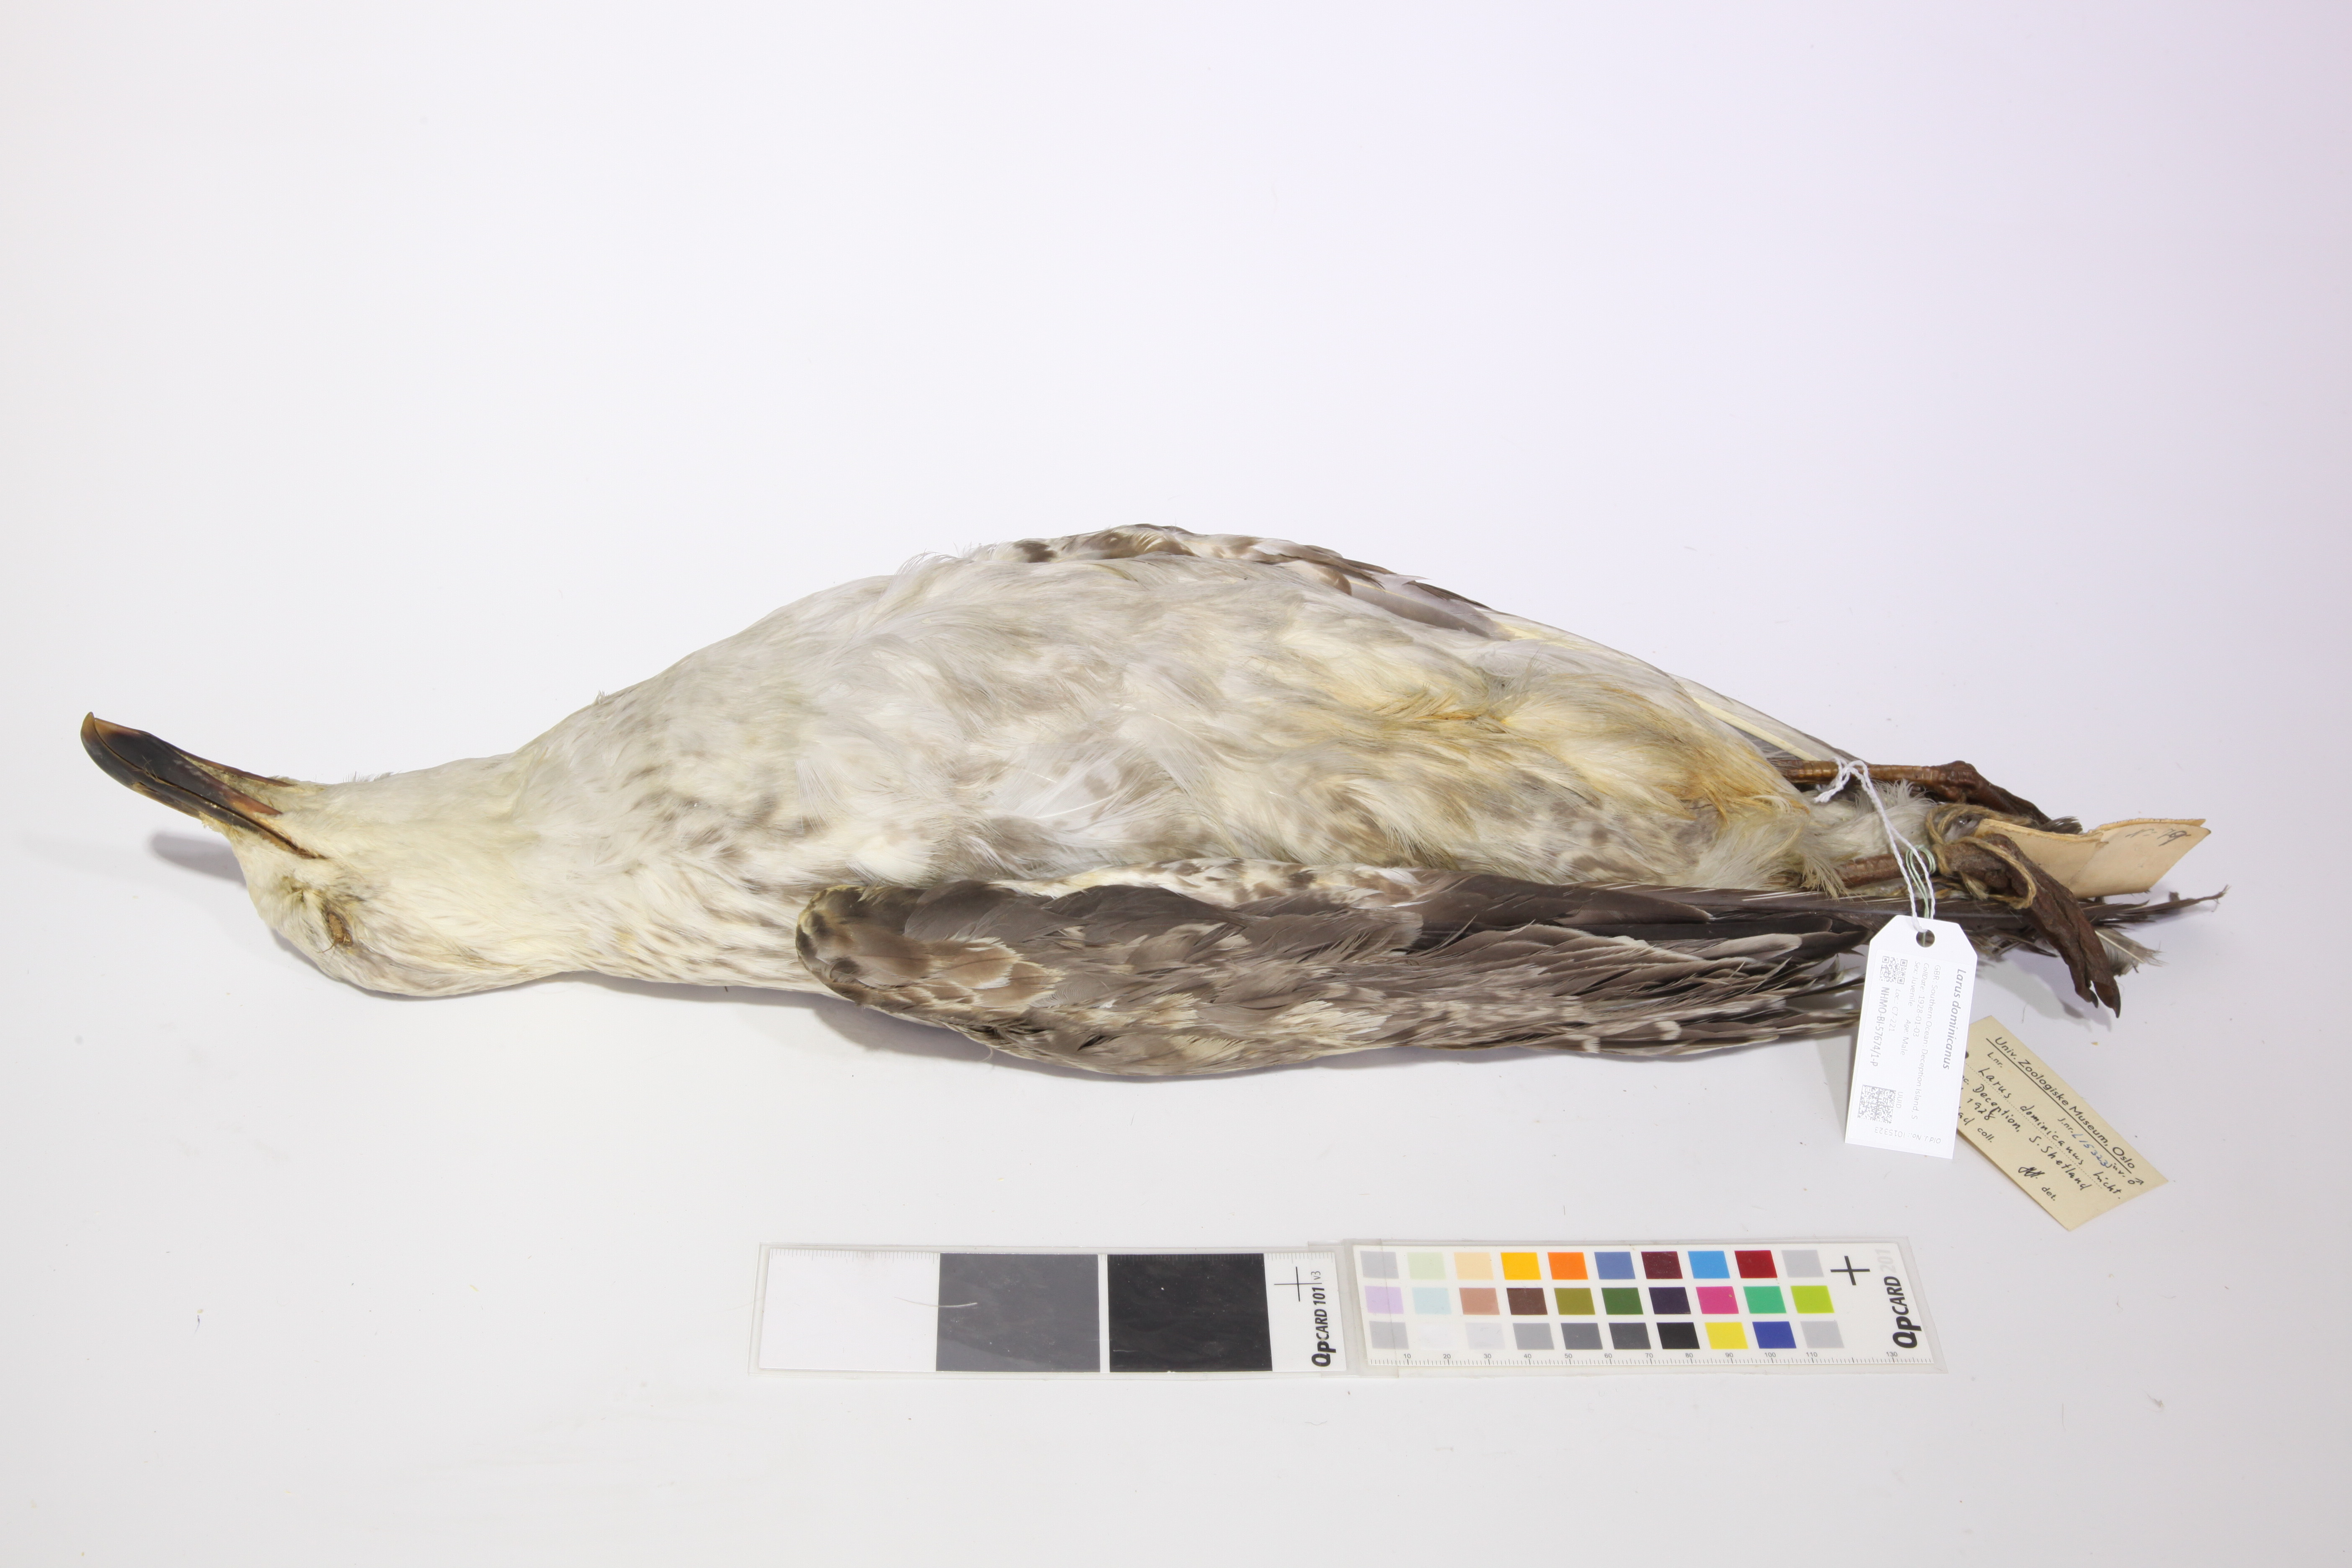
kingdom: Animalia
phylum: Chordata
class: Aves
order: Charadriiformes
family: Laridae
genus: Larus
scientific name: Larus dominicanus
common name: Kelp gull
